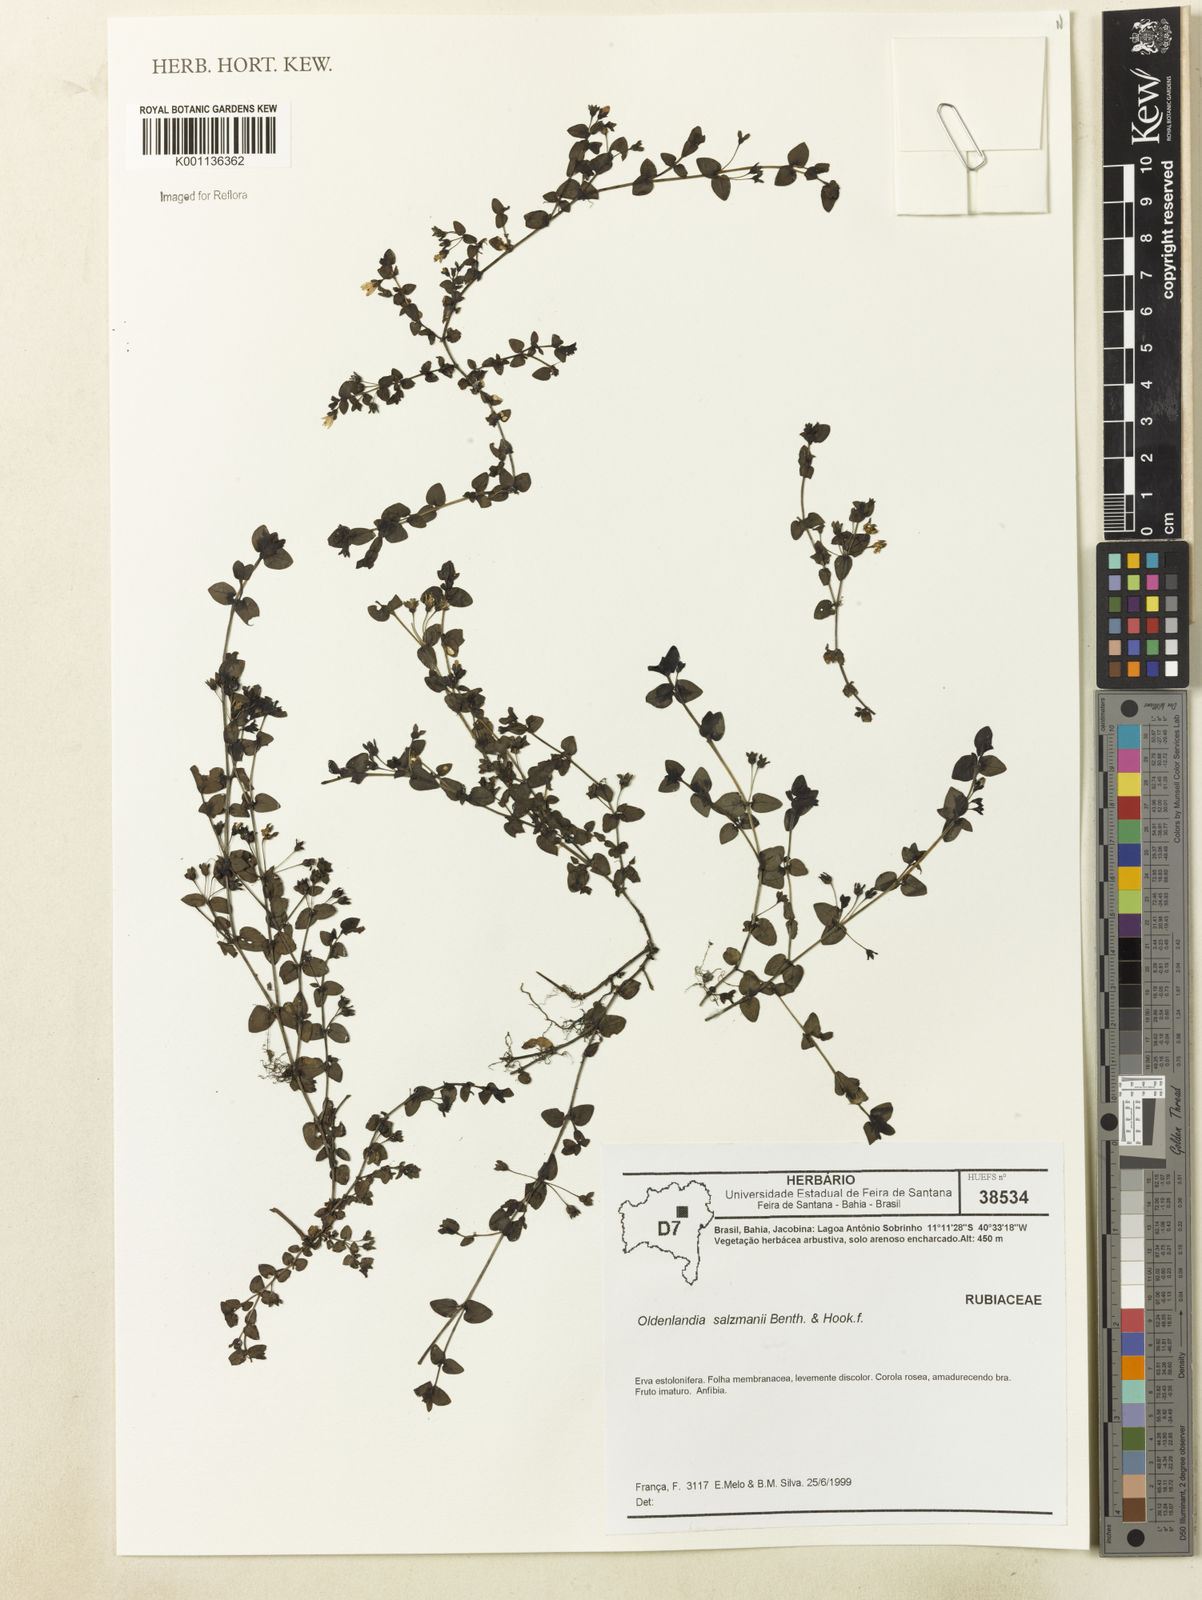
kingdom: Plantae
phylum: Tracheophyta
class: Magnoliopsida
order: Gentianales
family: Rubiaceae
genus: Oldenlandia
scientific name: Oldenlandia salzmannii
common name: Salzmann's mille graines
